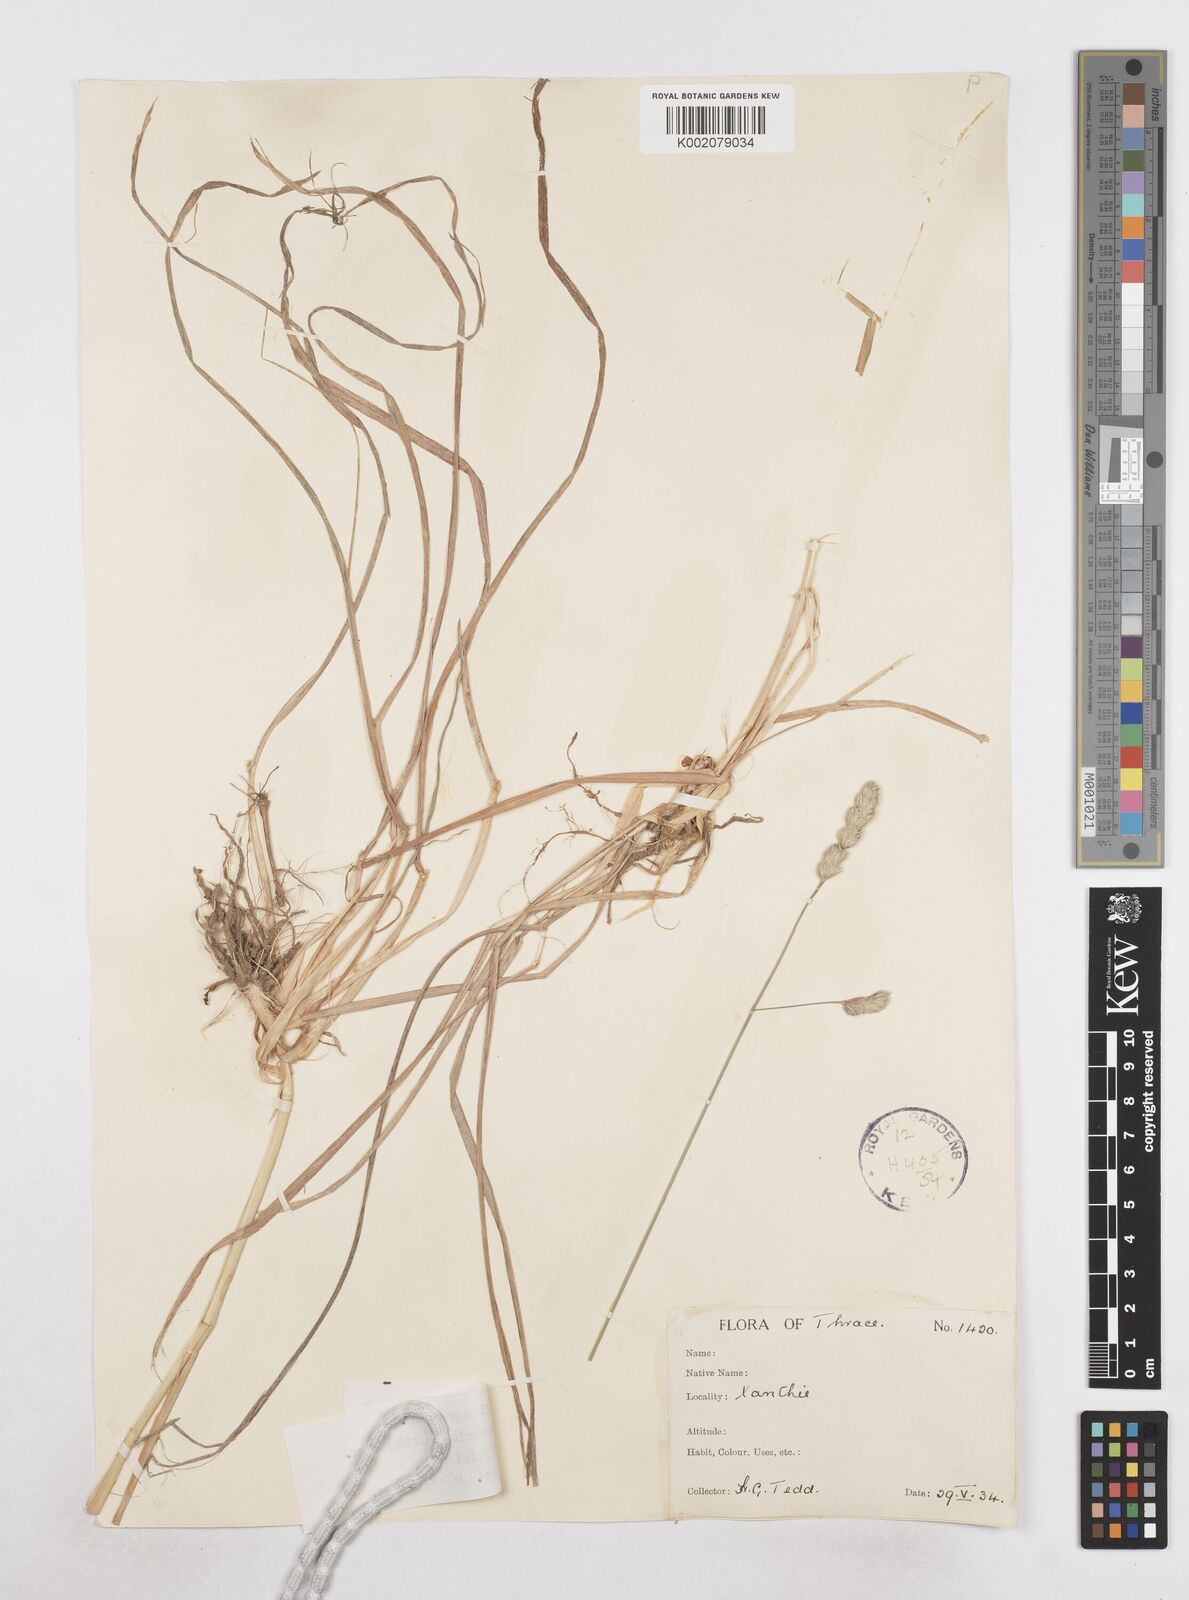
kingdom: Plantae
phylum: Tracheophyta
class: Liliopsida
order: Poales
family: Poaceae
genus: Dactylis
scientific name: Dactylis glomerata
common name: Orchardgrass
